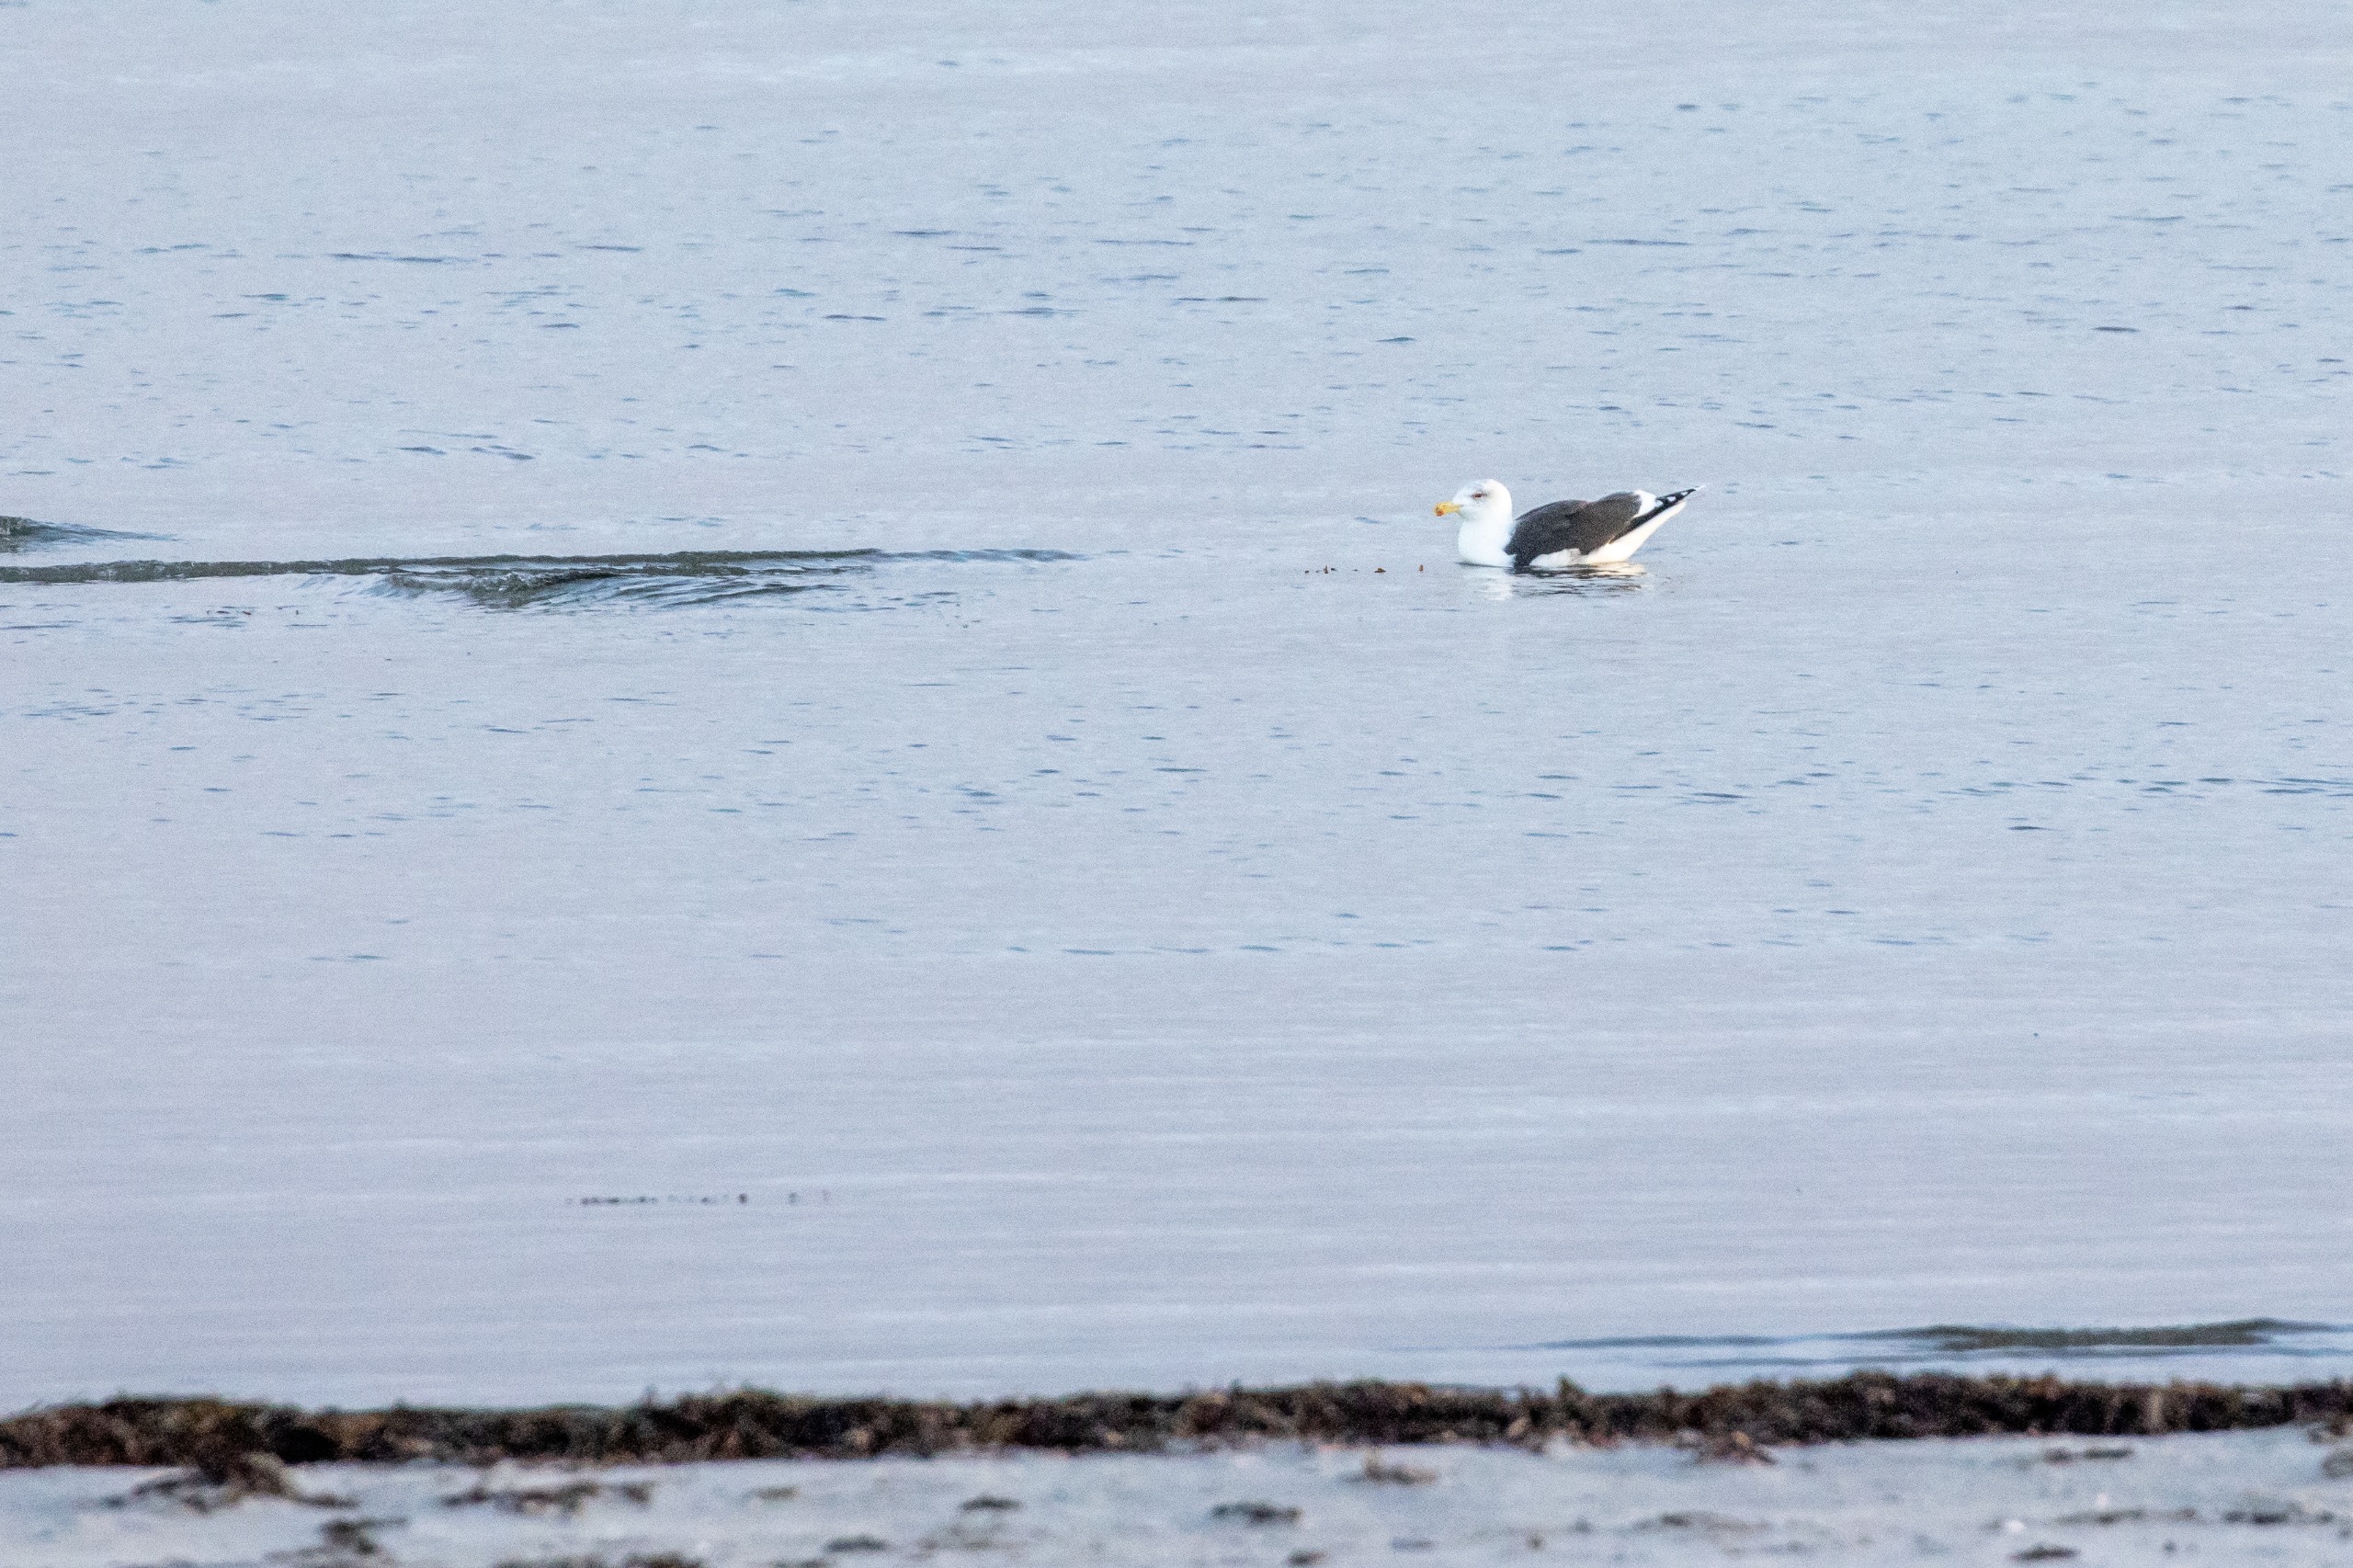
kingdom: Animalia
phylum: Chordata
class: Aves
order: Charadriiformes
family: Laridae
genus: Larus
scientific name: Larus marinus
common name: Svartbag
